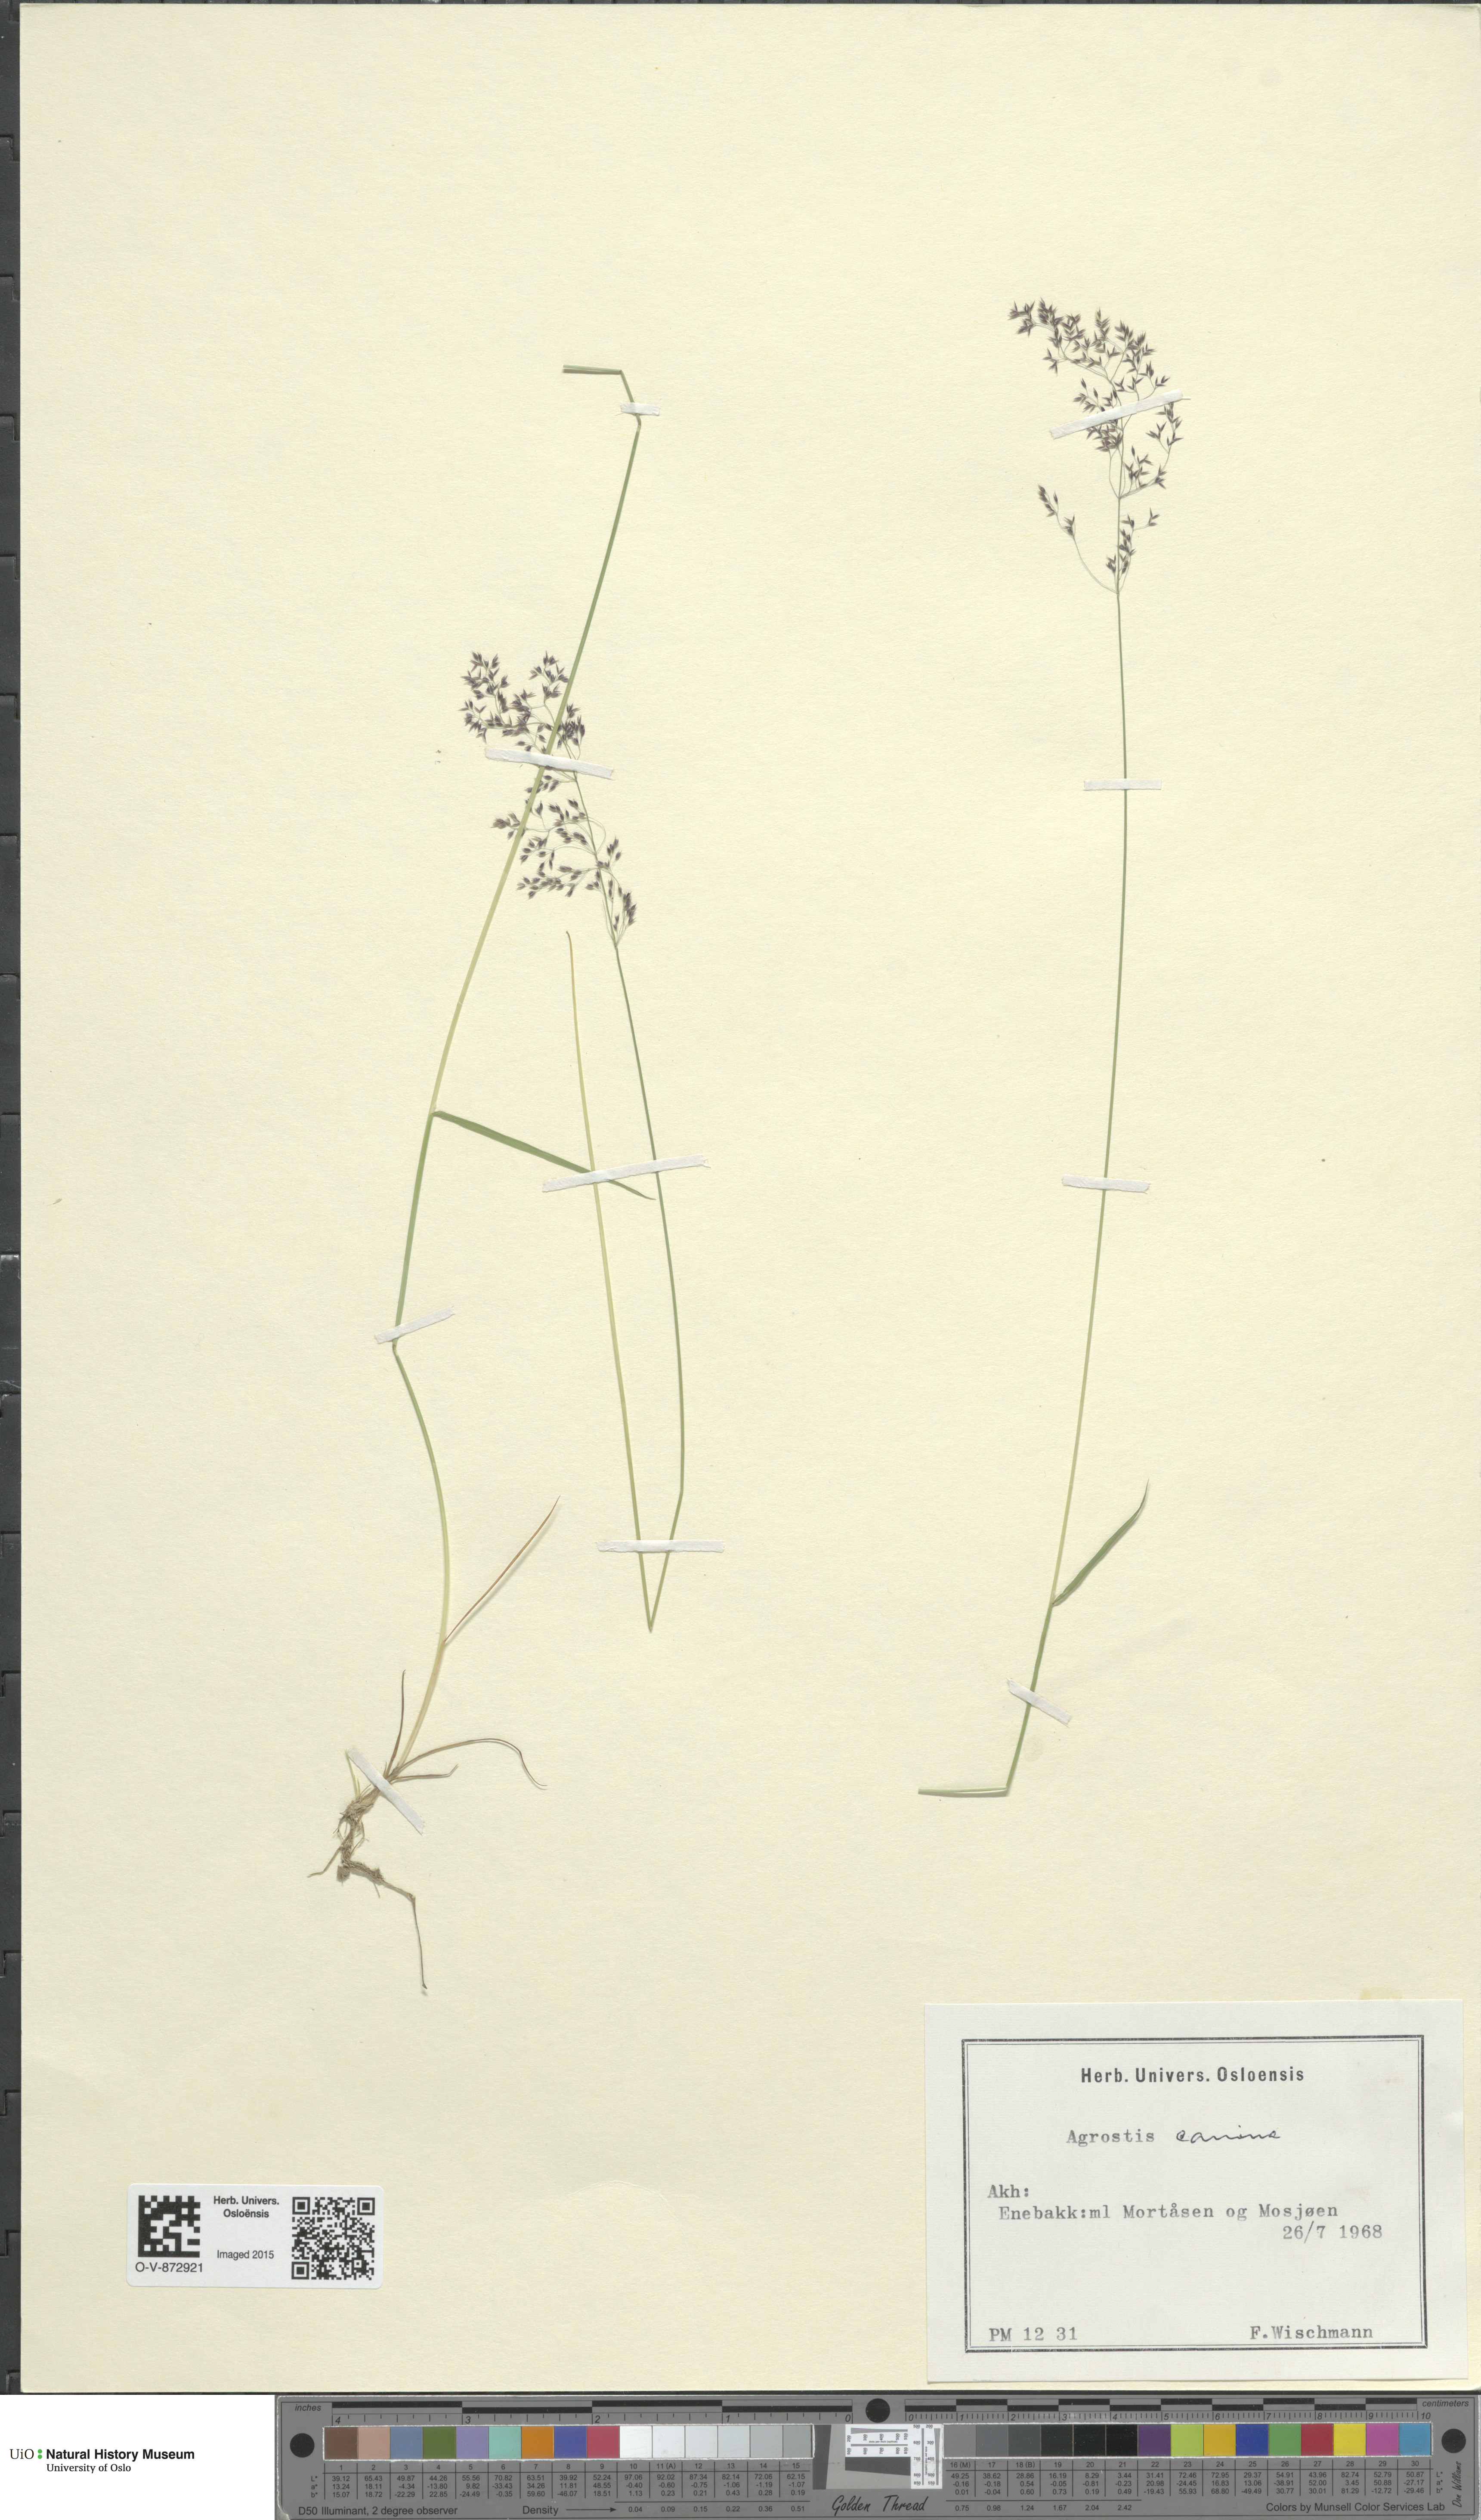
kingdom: Plantae
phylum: Tracheophyta
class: Liliopsida
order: Poales
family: Poaceae
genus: Agrostis
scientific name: Agrostis canina
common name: Velvet bent
